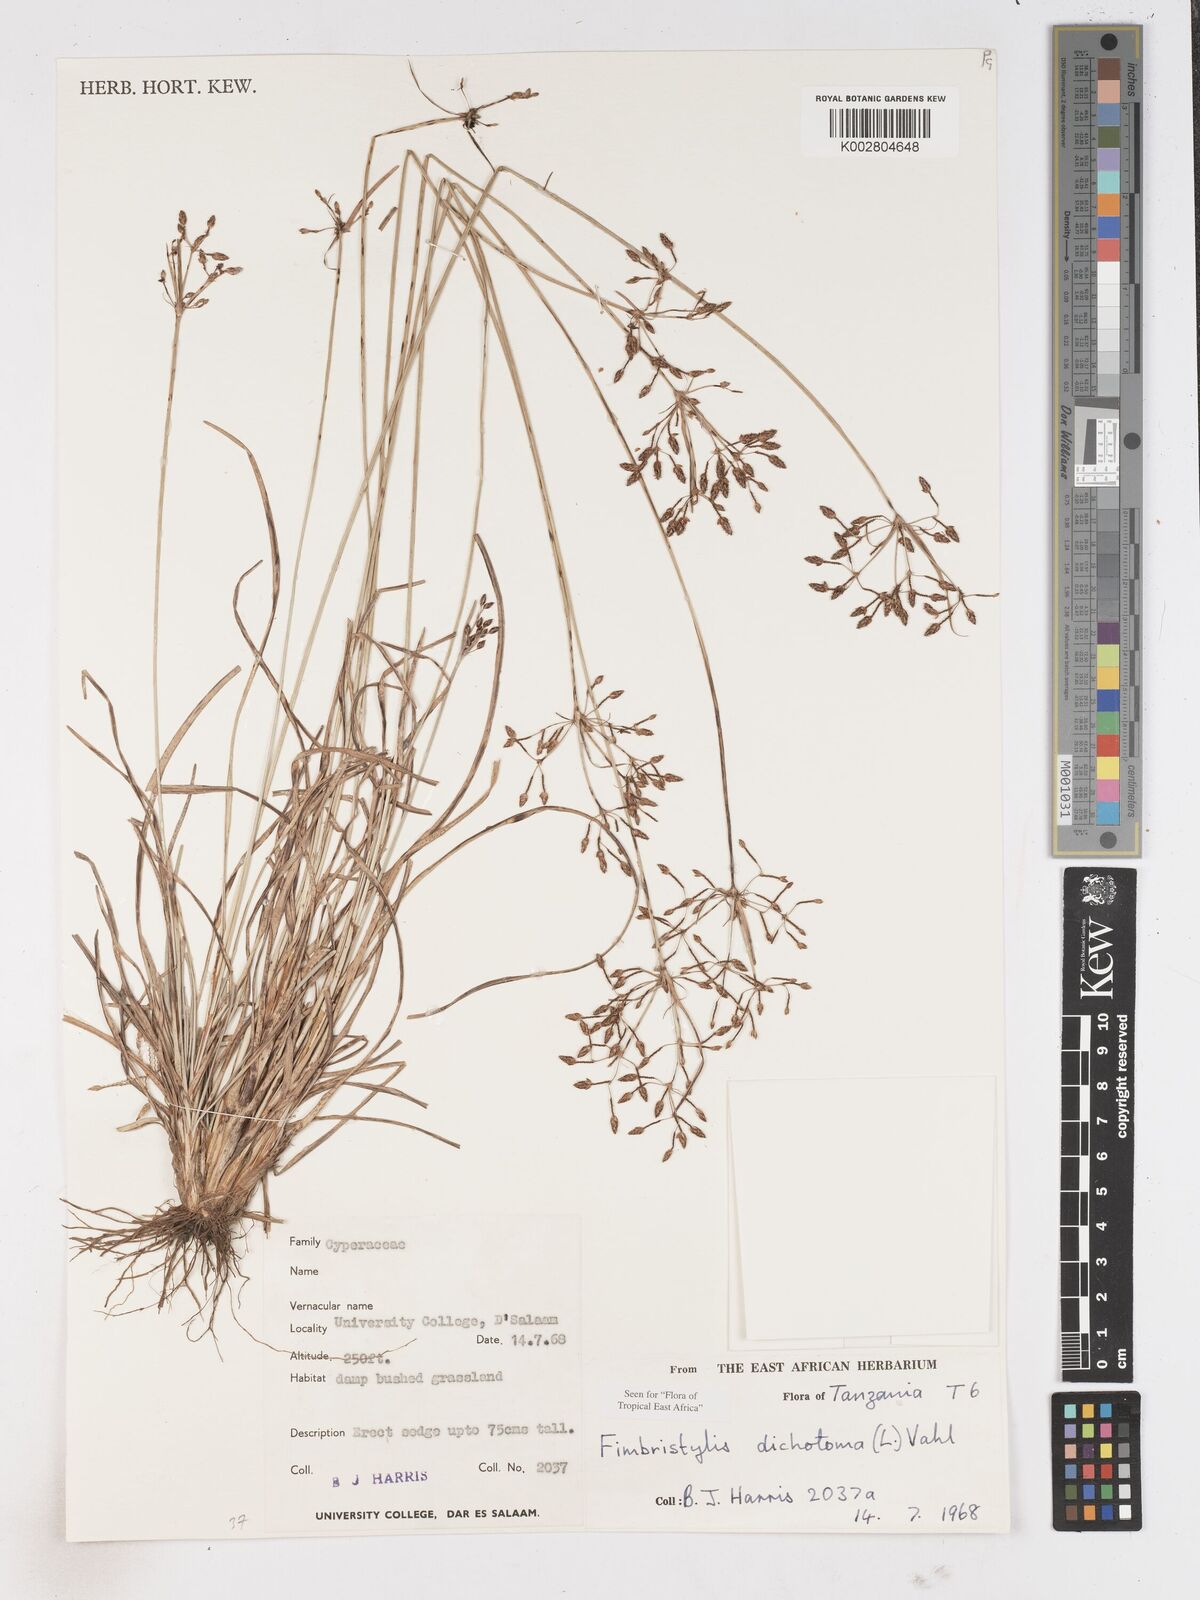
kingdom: Plantae
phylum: Tracheophyta
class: Liliopsida
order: Poales
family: Cyperaceae
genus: Fimbristylis
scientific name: Fimbristylis dichotoma
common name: Forked fimbry
